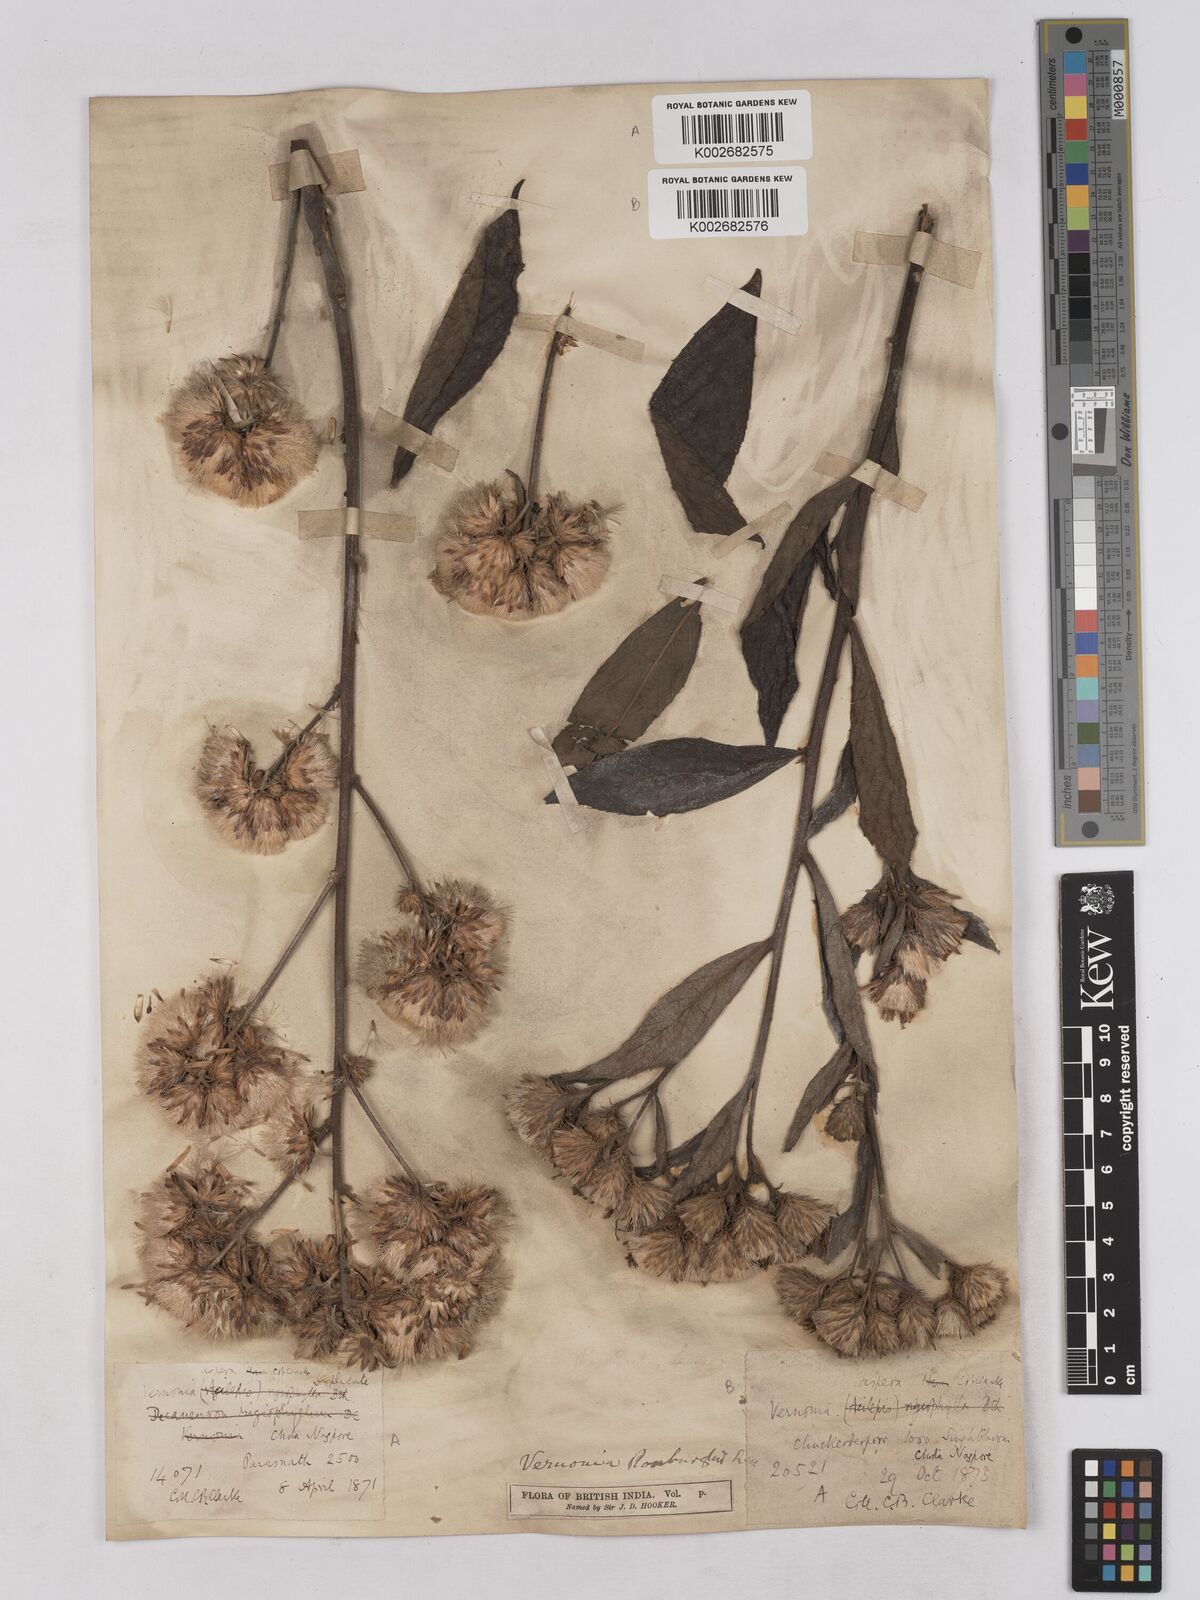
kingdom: Plantae
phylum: Tracheophyta
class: Magnoliopsida
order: Asterales
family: Asteraceae
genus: Acilepis
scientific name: Acilepis aspera
